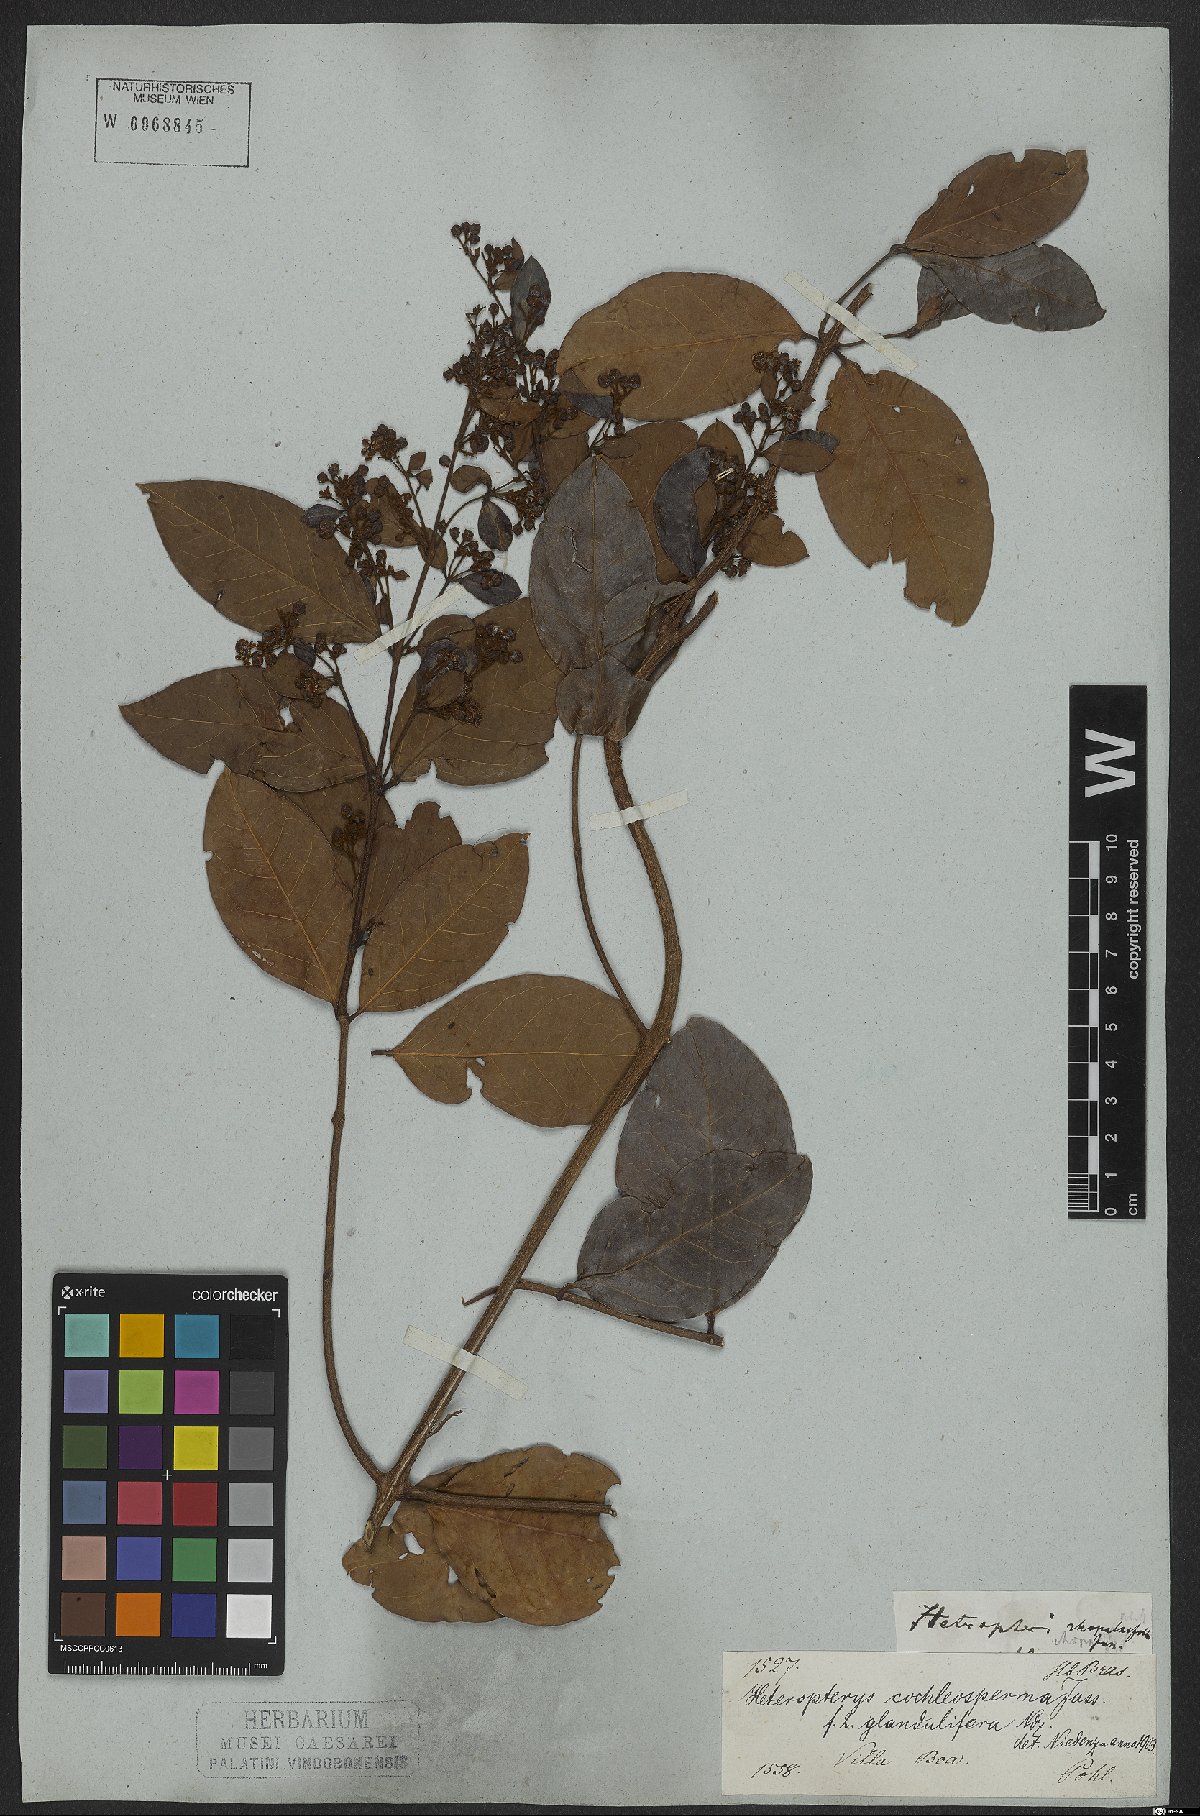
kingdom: Plantae
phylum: Tracheophyta
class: Magnoliopsida
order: Malpighiales
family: Malpighiaceae
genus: Heteropterys
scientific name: Heteropterys cochleosperma
